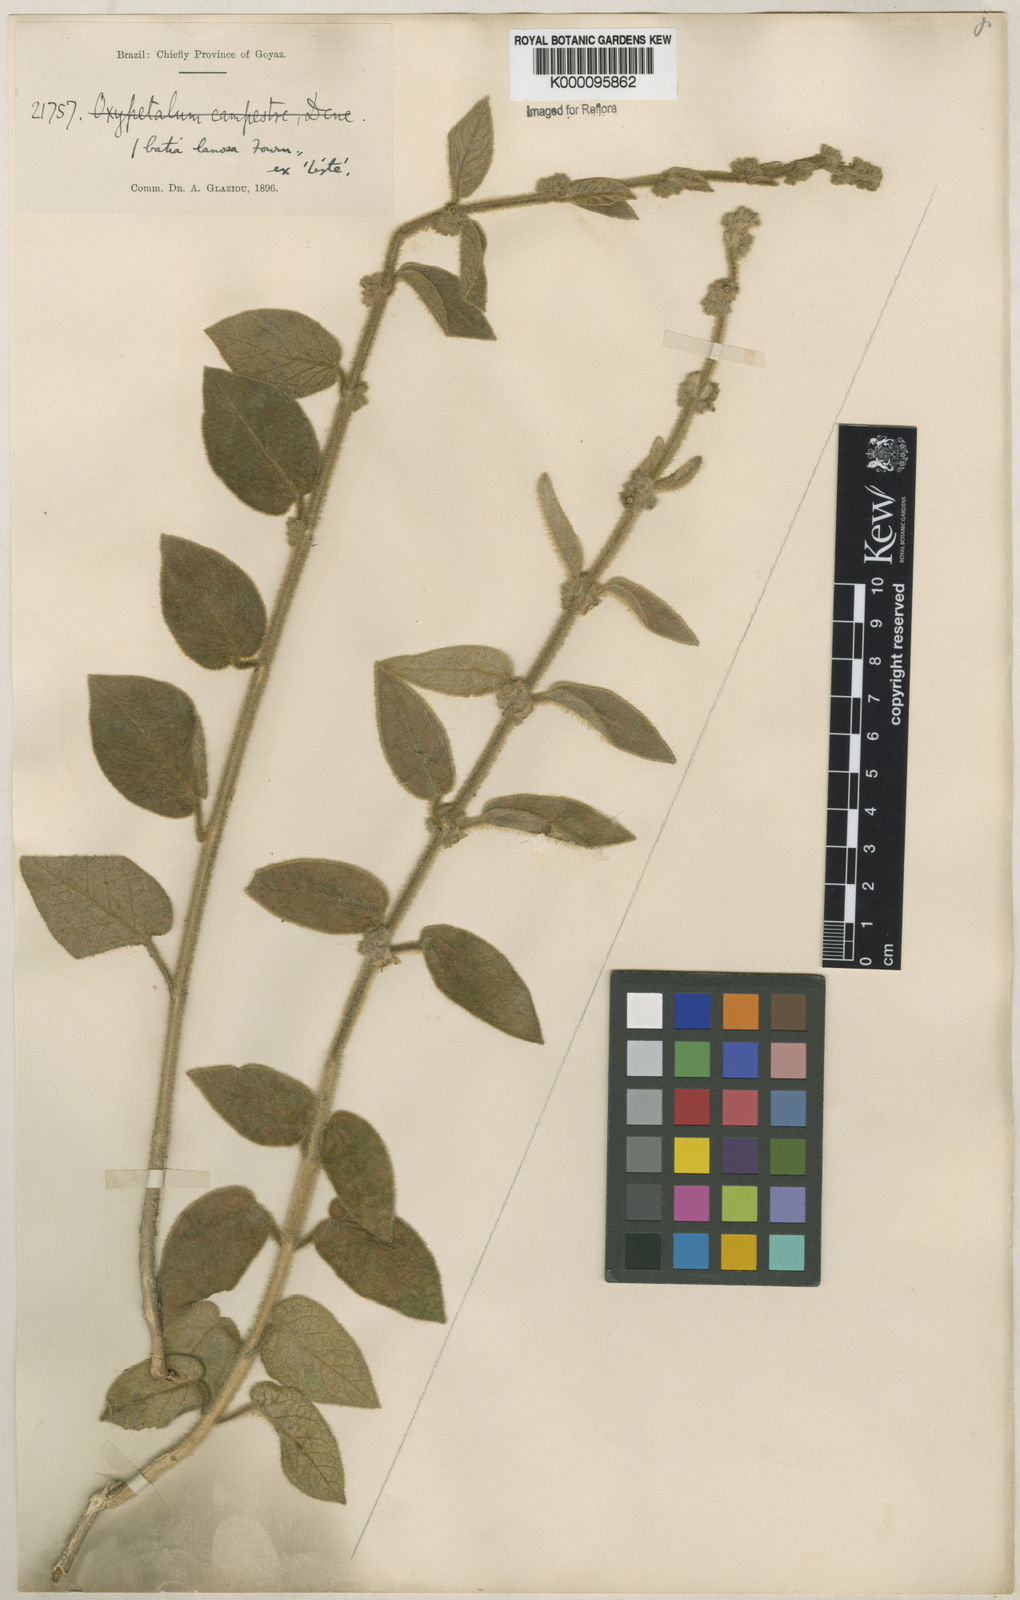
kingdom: Plantae
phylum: Tracheophyta
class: Magnoliopsida
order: Gentianales
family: Apocynaceae
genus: Ibatia
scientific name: Ibatia lanosa
